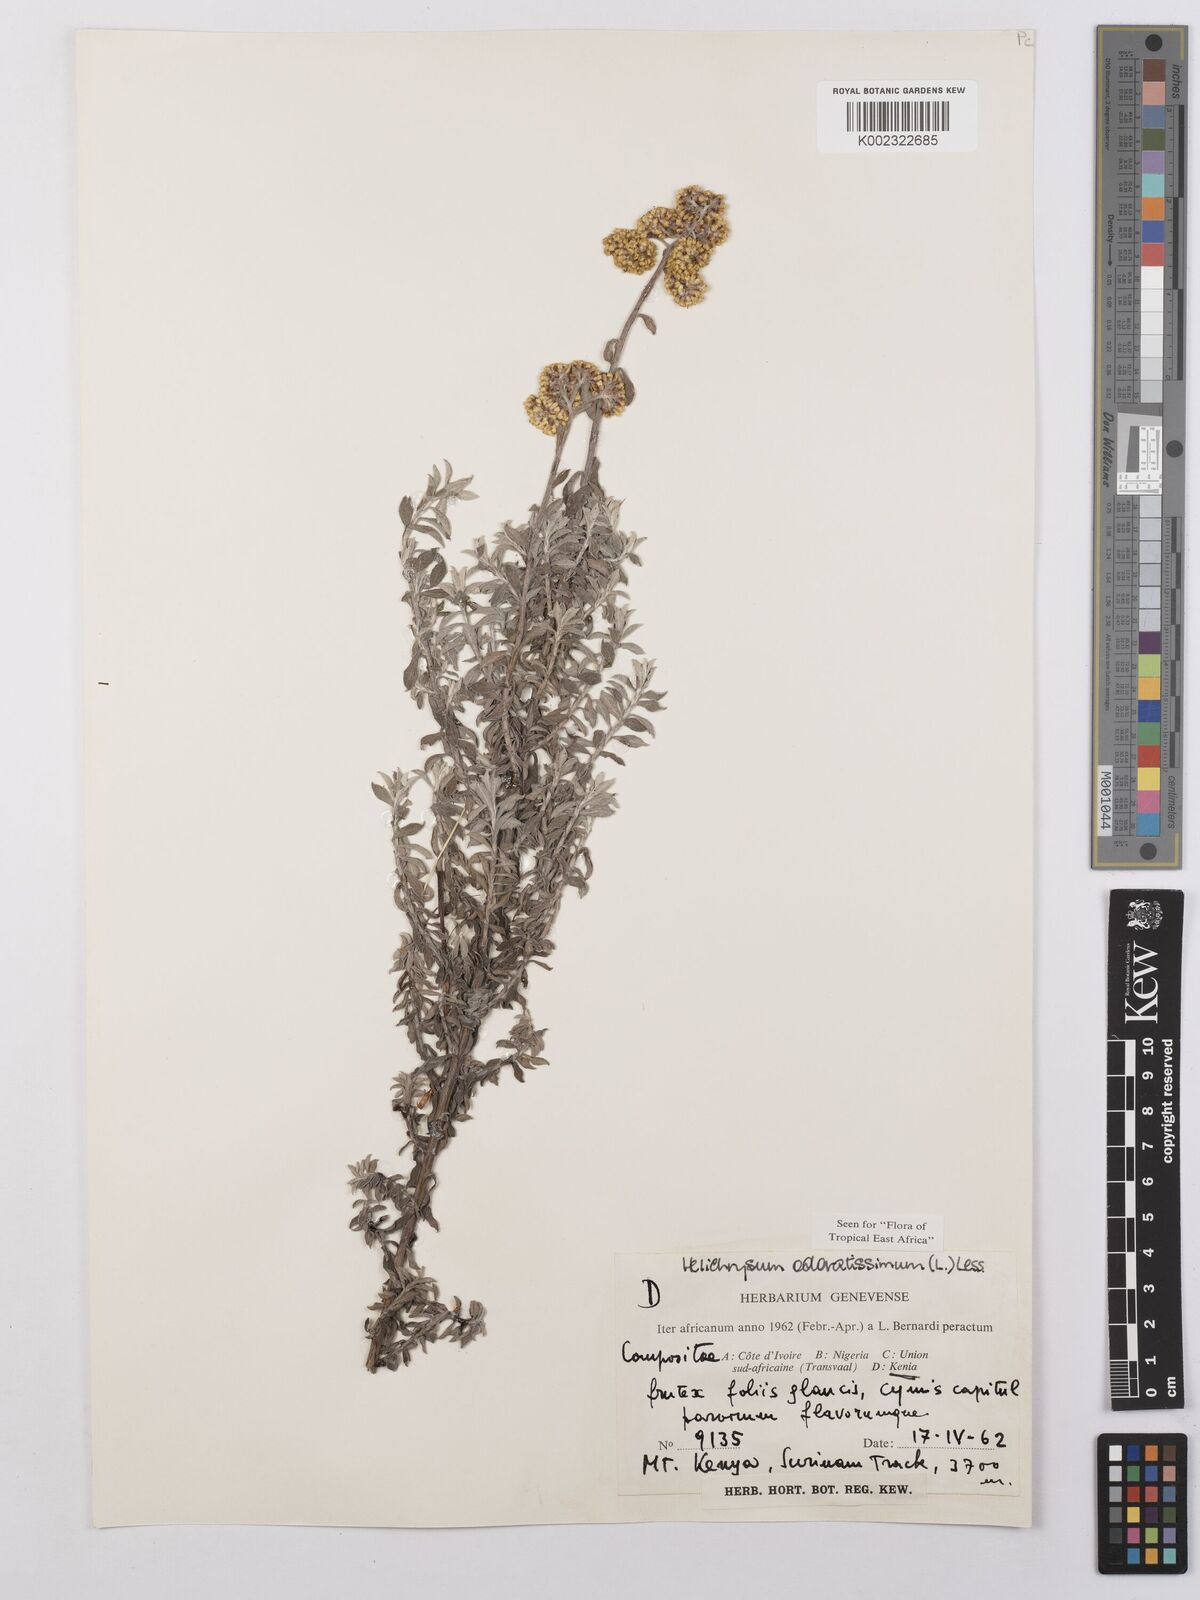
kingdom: Plantae
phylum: Tracheophyta
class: Magnoliopsida
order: Asterales
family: Asteraceae
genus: Helichrysum
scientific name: Helichrysum odoratissimum
